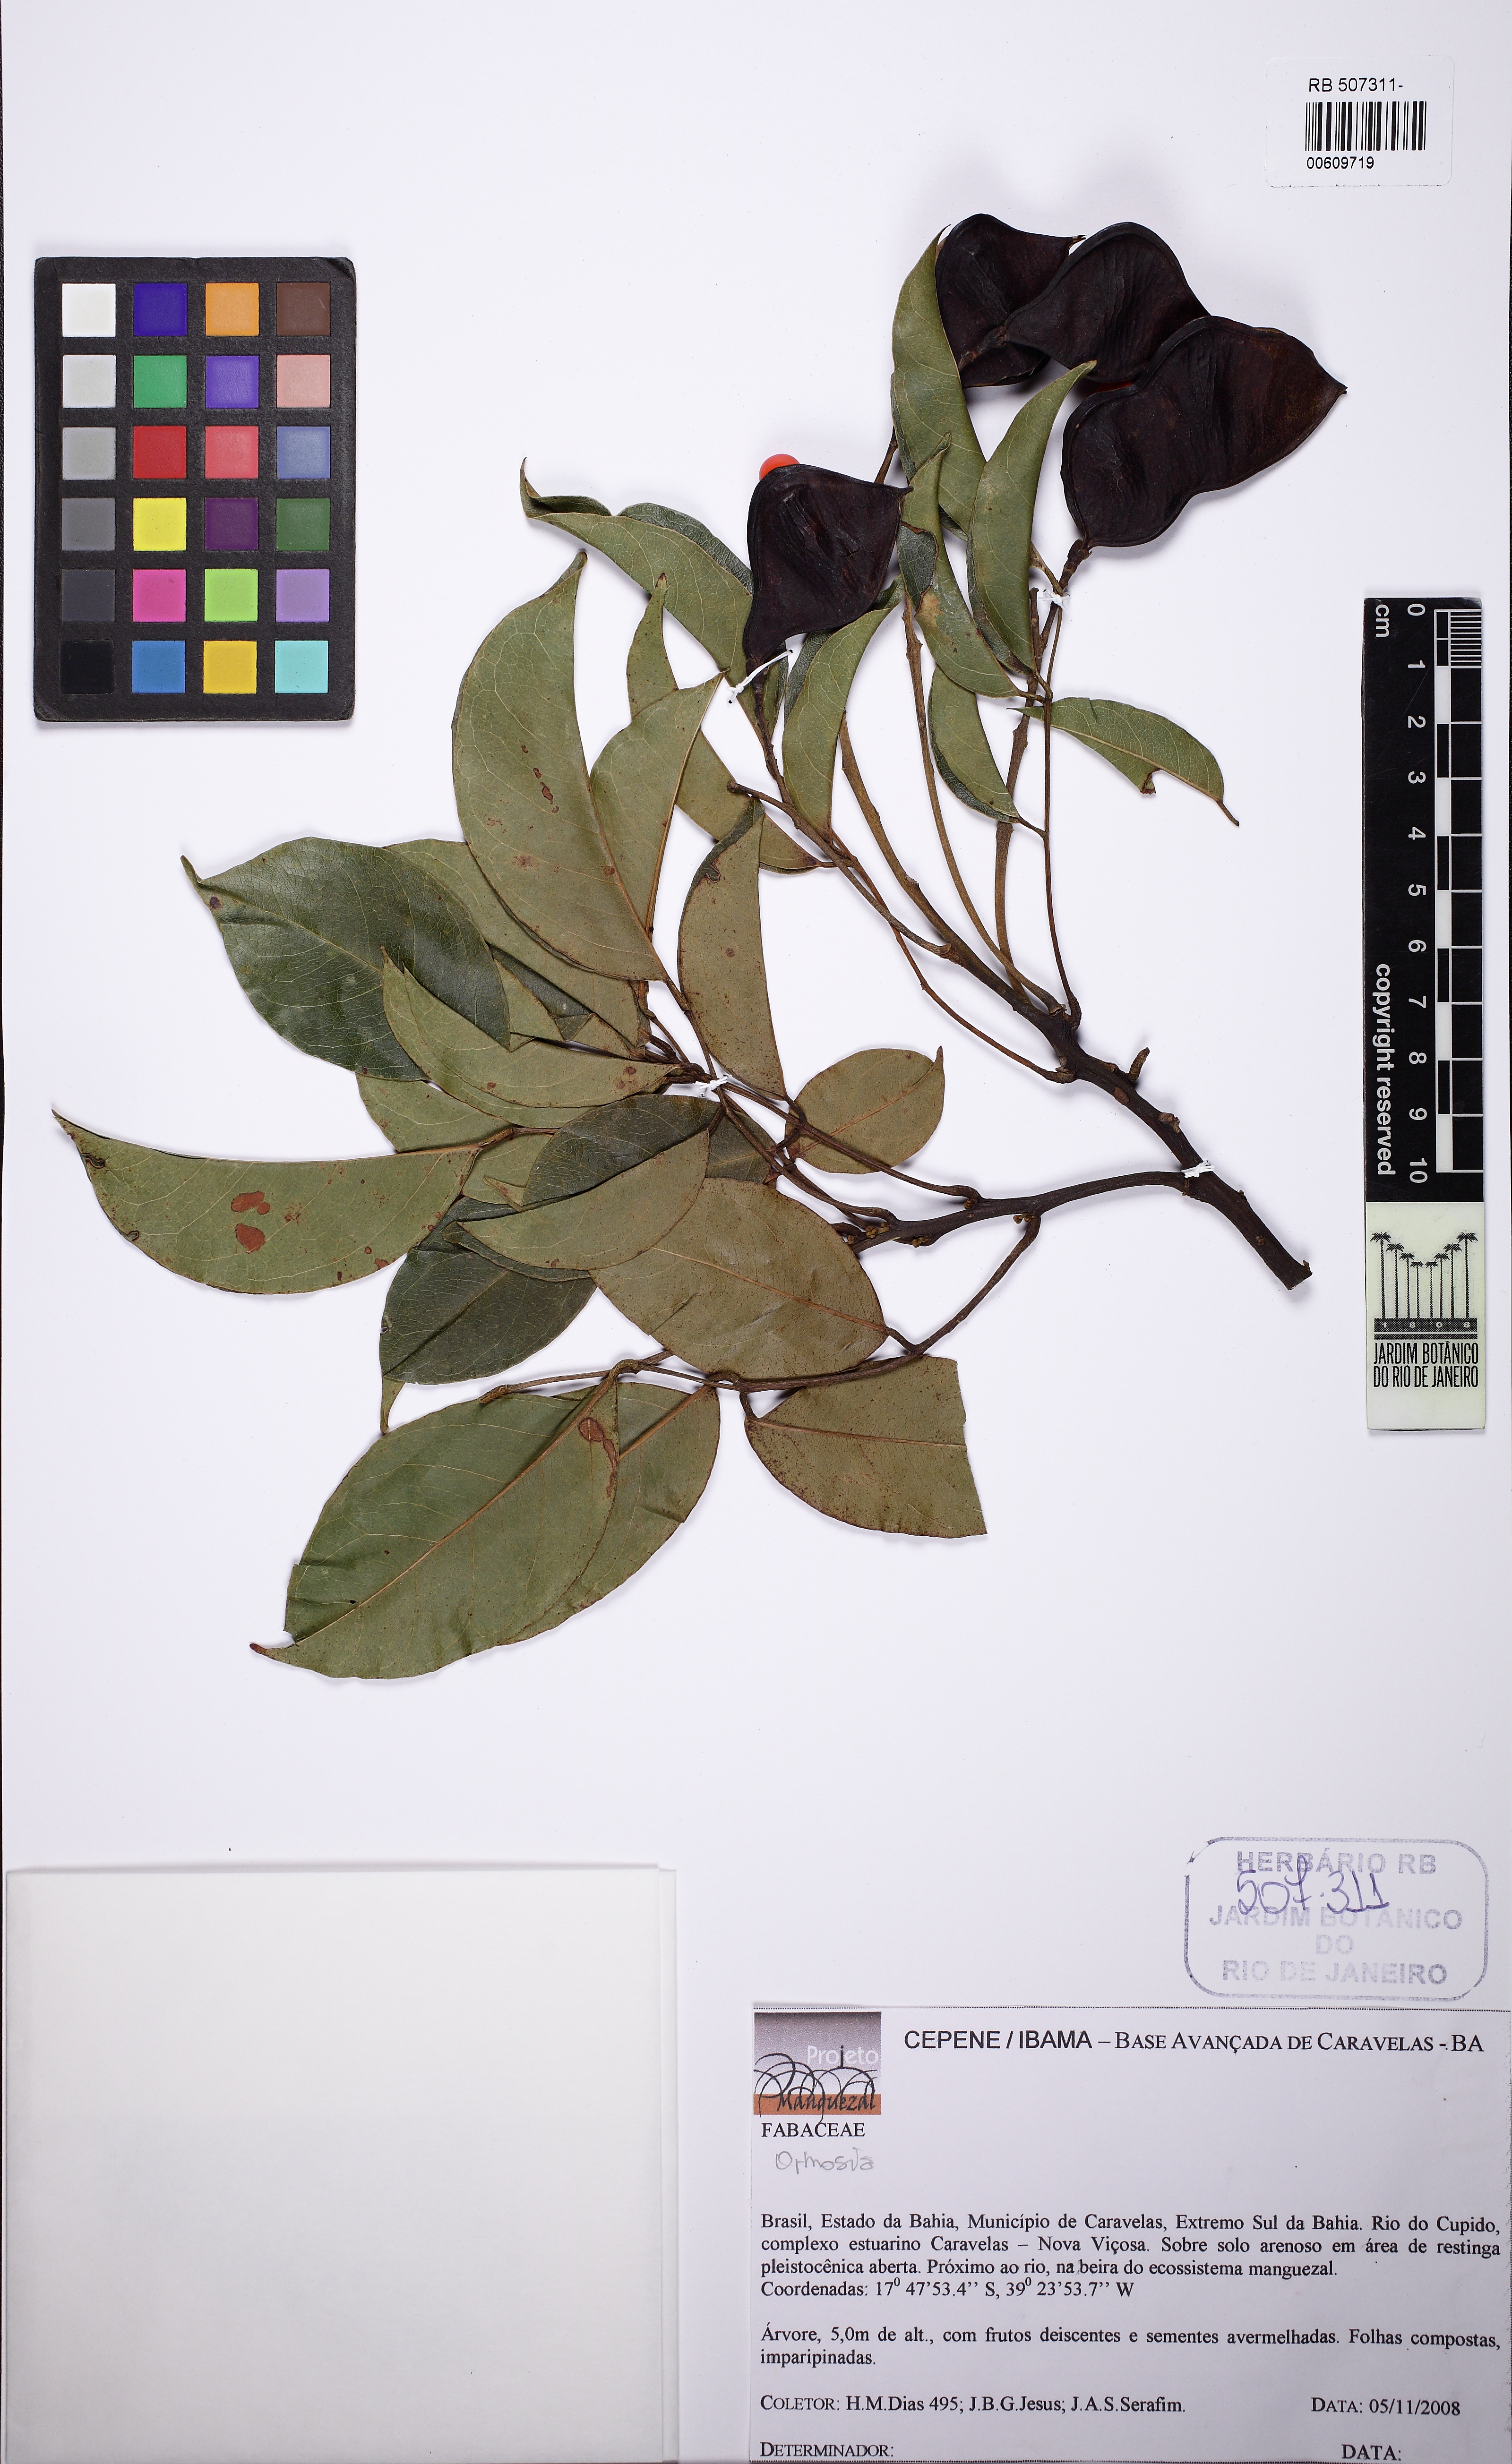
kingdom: Plantae
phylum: Tracheophyta
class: Magnoliopsida
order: Fabales
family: Fabaceae
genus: Ormosia
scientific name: Ormosia nitida
